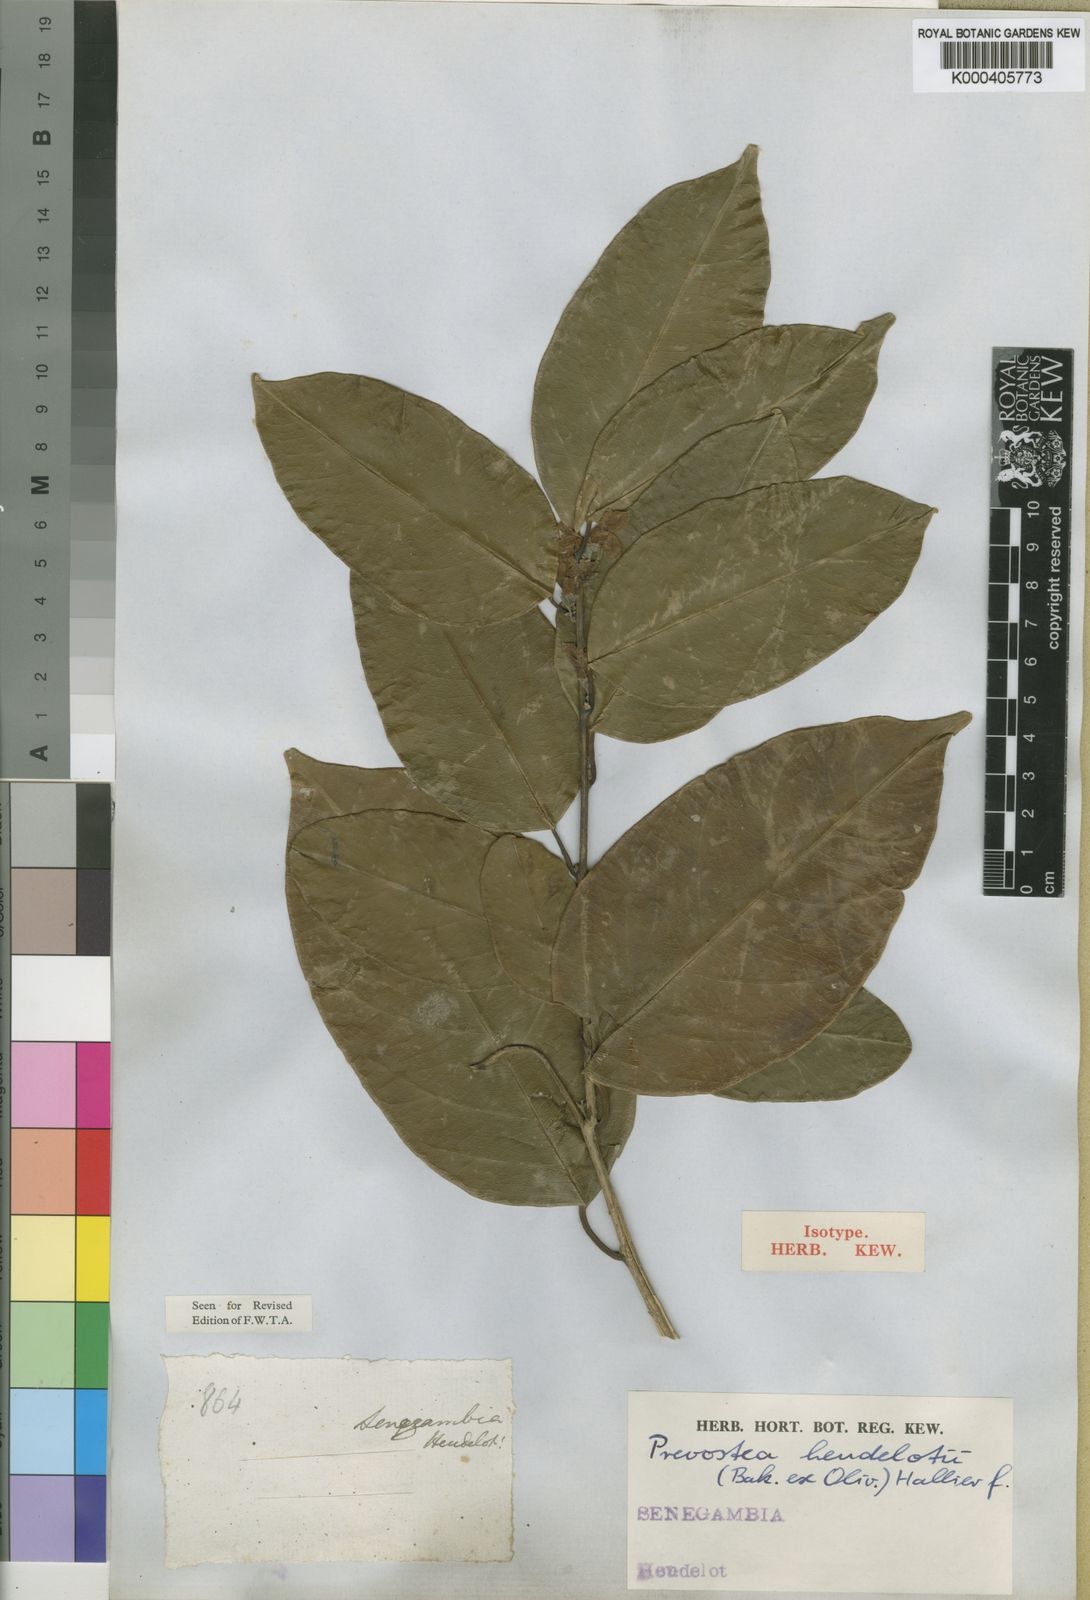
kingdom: Plantae
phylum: Tracheophyta
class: Magnoliopsida
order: Solanales
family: Convolvulaceae
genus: Calycobolus
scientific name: Calycobolus heudelotii
